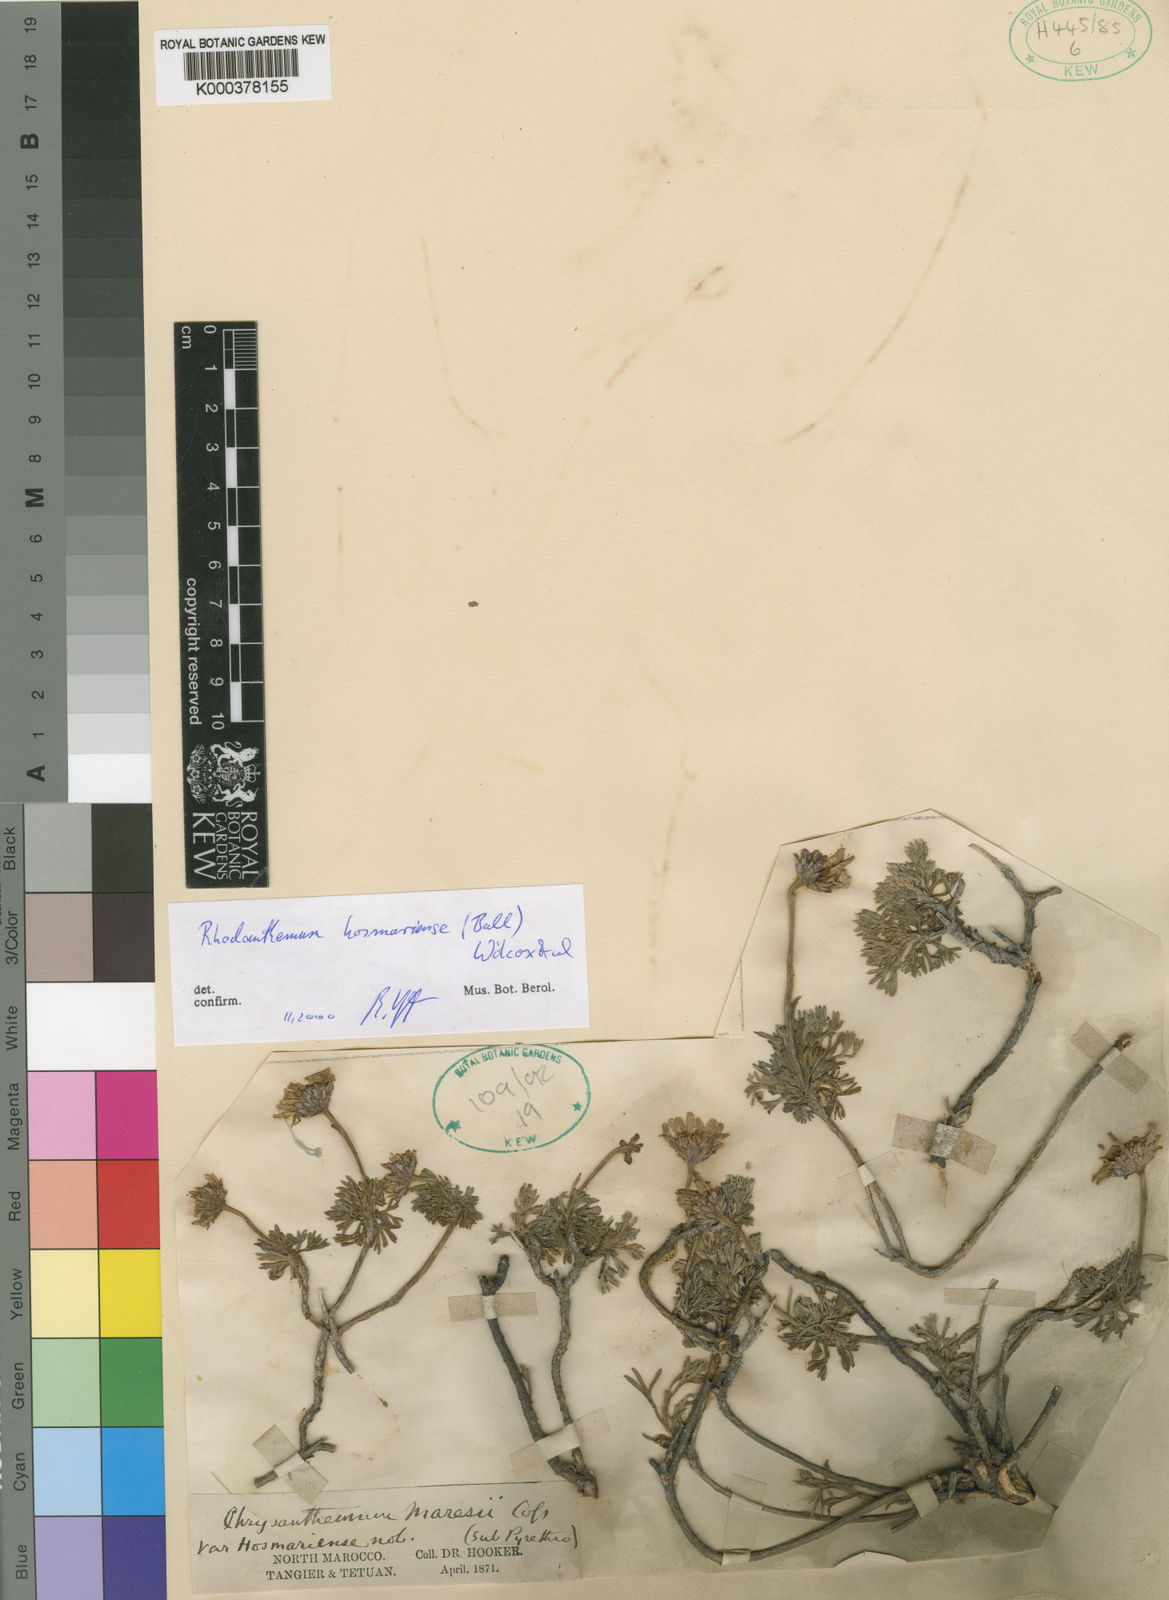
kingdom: Plantae
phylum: Tracheophyta
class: Magnoliopsida
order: Asterales
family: Asteraceae
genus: Rhodanthemum
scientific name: Rhodanthemum
